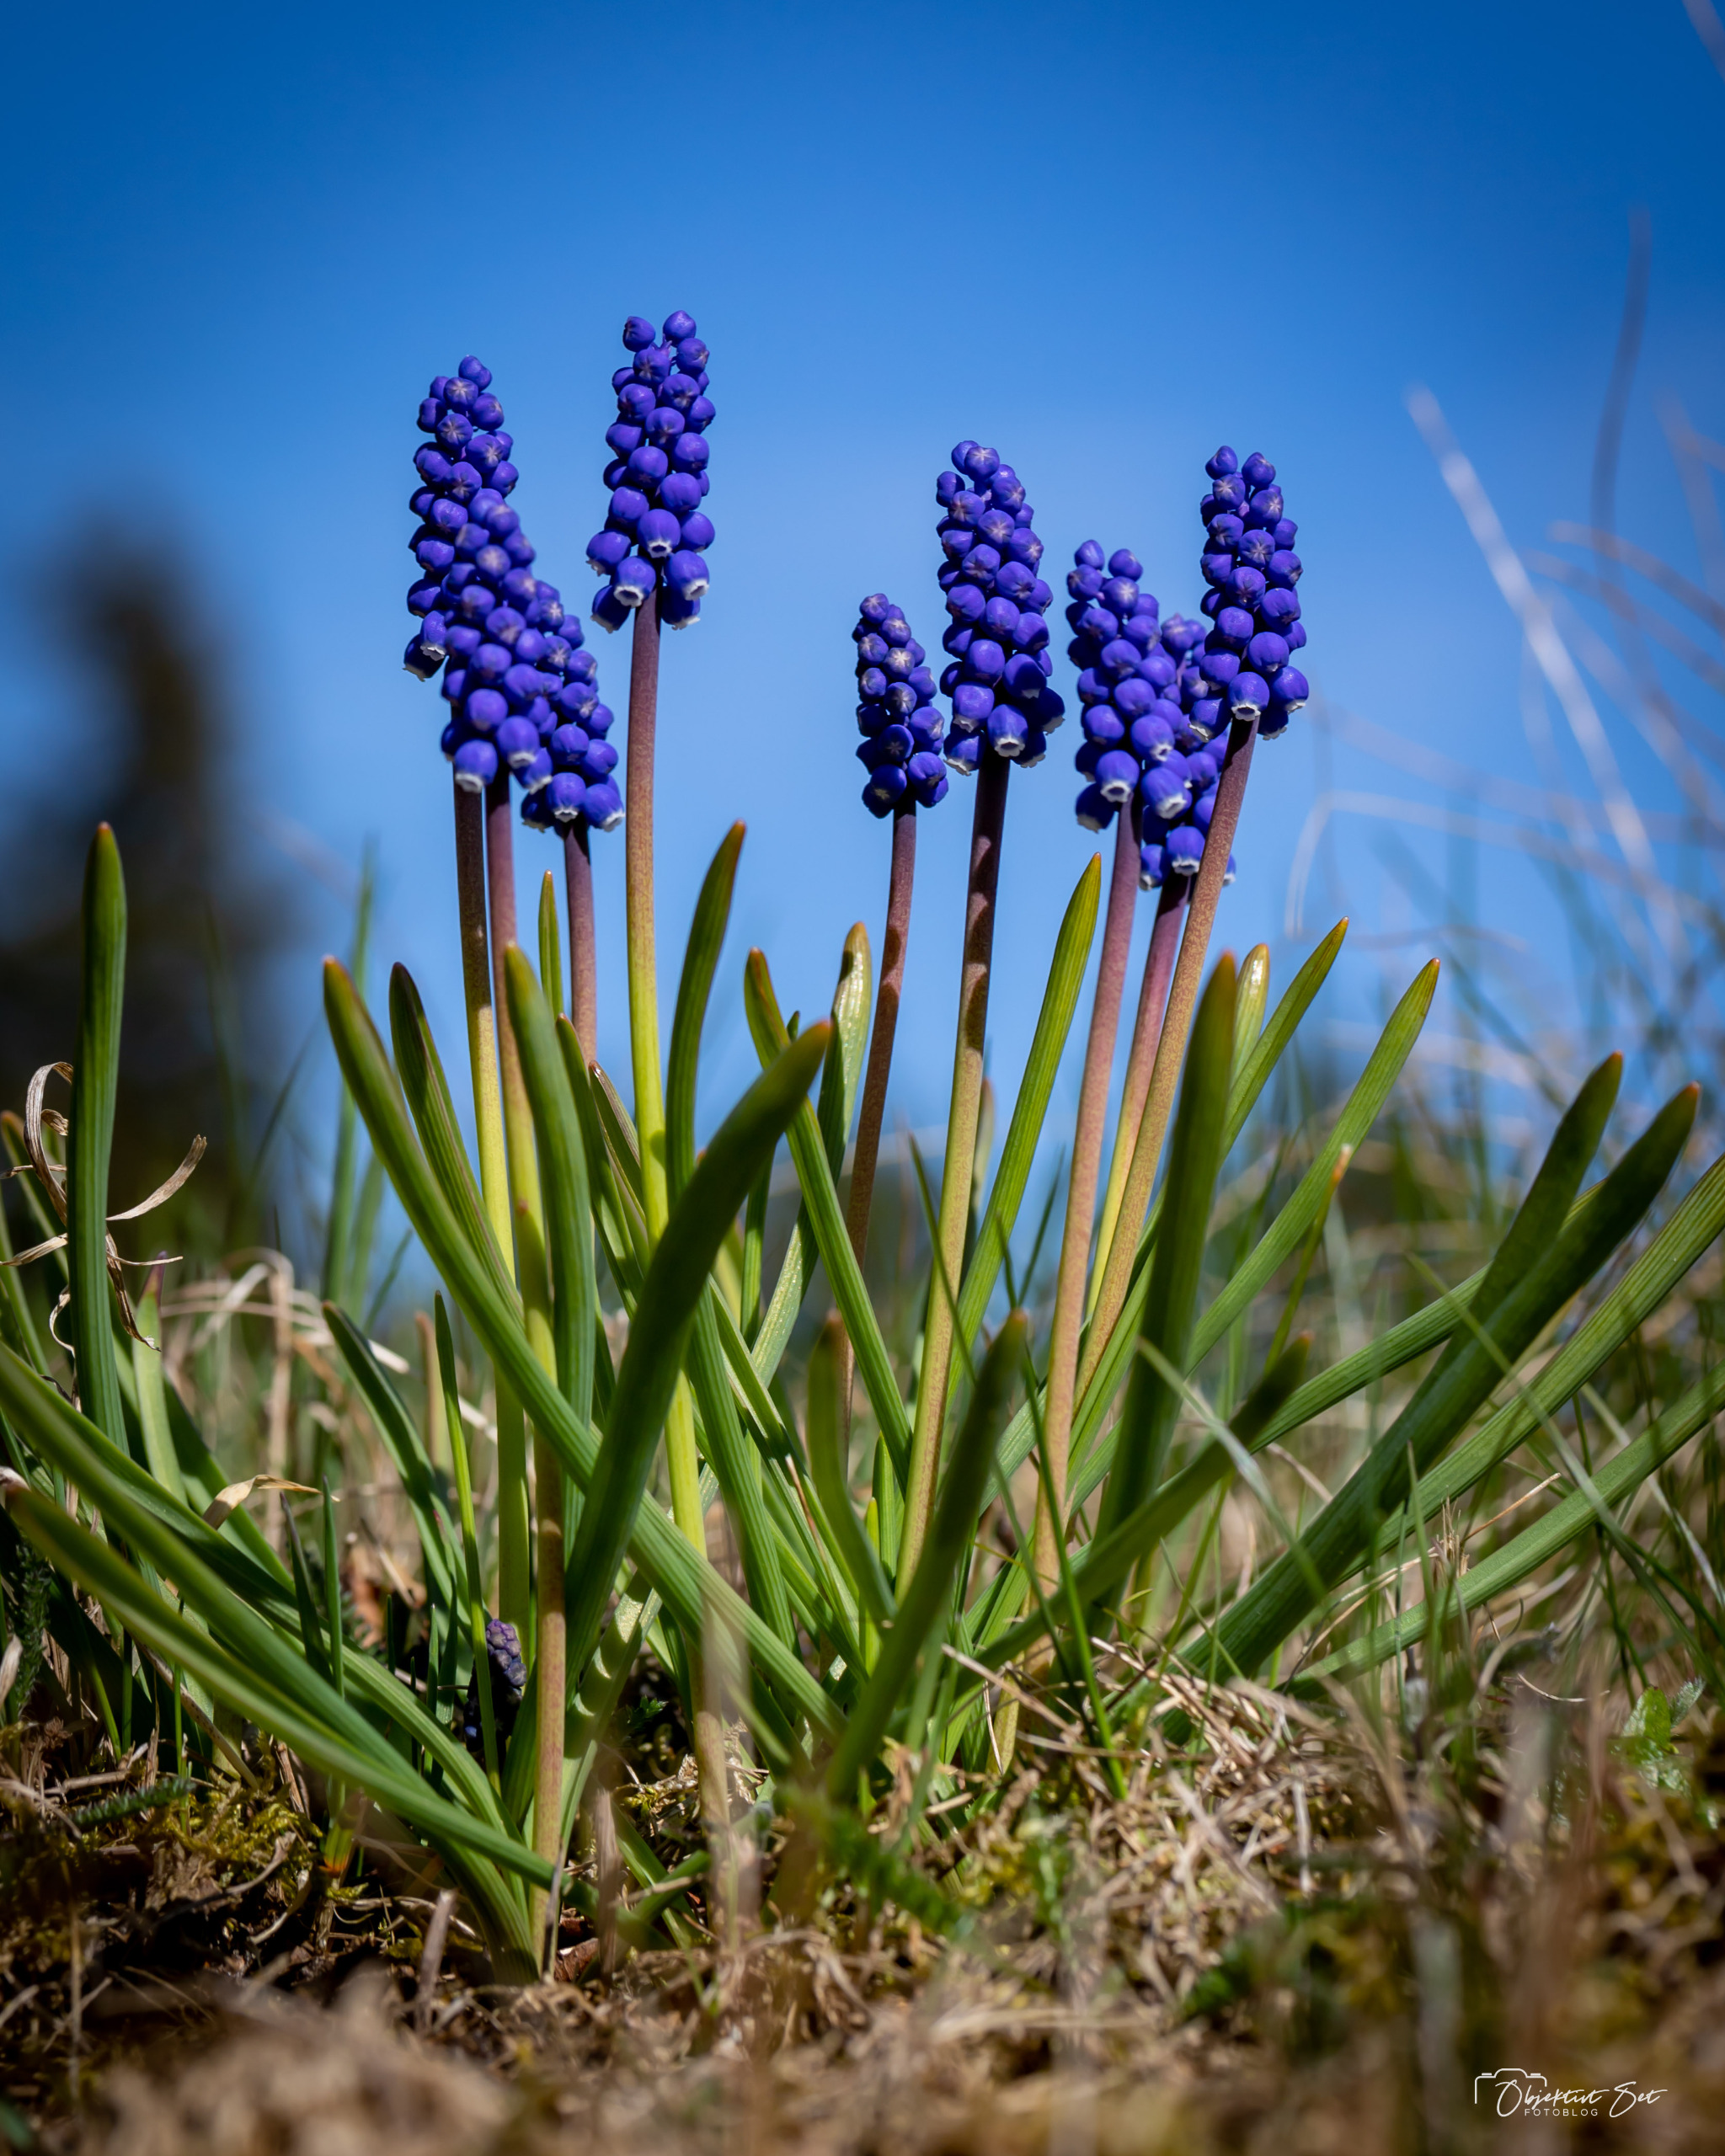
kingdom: Plantae
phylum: Tracheophyta
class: Liliopsida
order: Asparagales
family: Asparagaceae
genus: Muscari
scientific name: Muscari botryoides
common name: Perlehyacint
